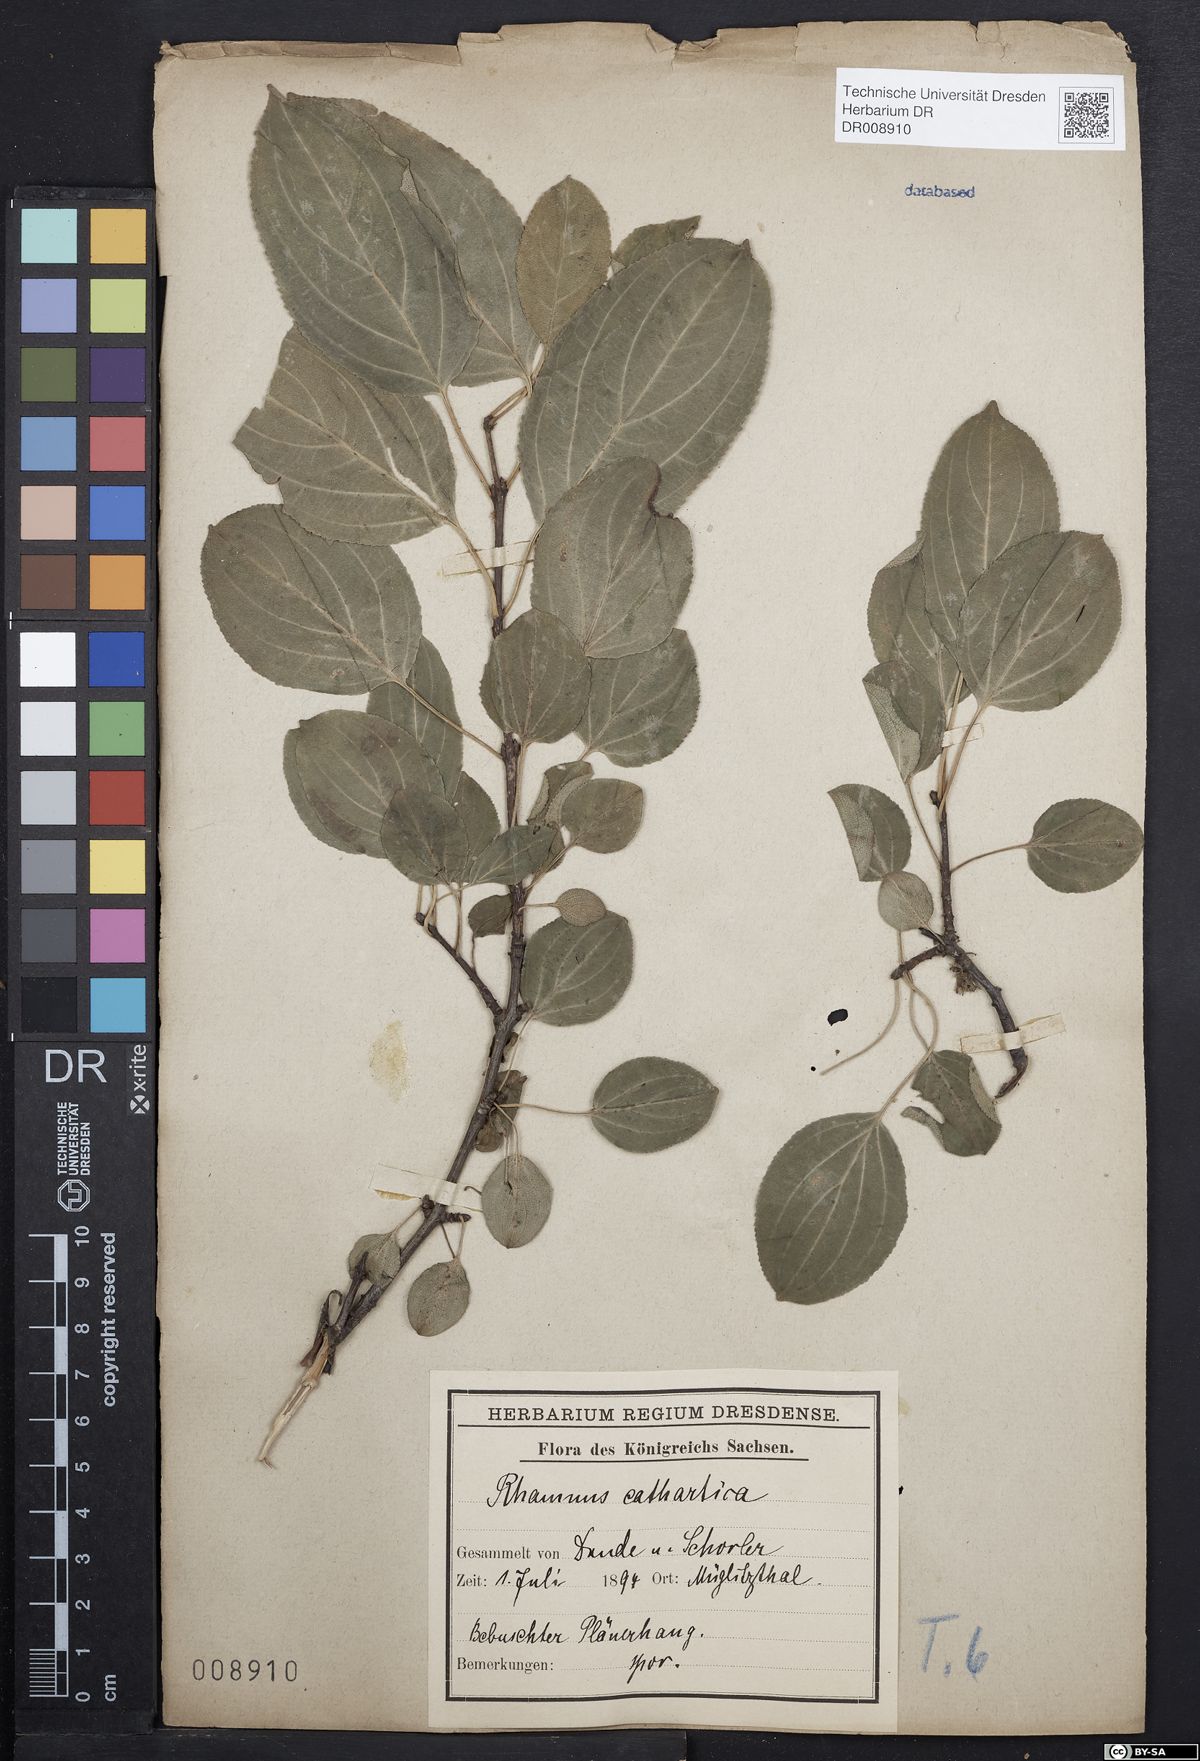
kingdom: Plantae
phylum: Tracheophyta
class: Magnoliopsida
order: Rosales
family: Rhamnaceae
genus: Rhamnus
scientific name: Rhamnus cathartica
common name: Common buckthorn
